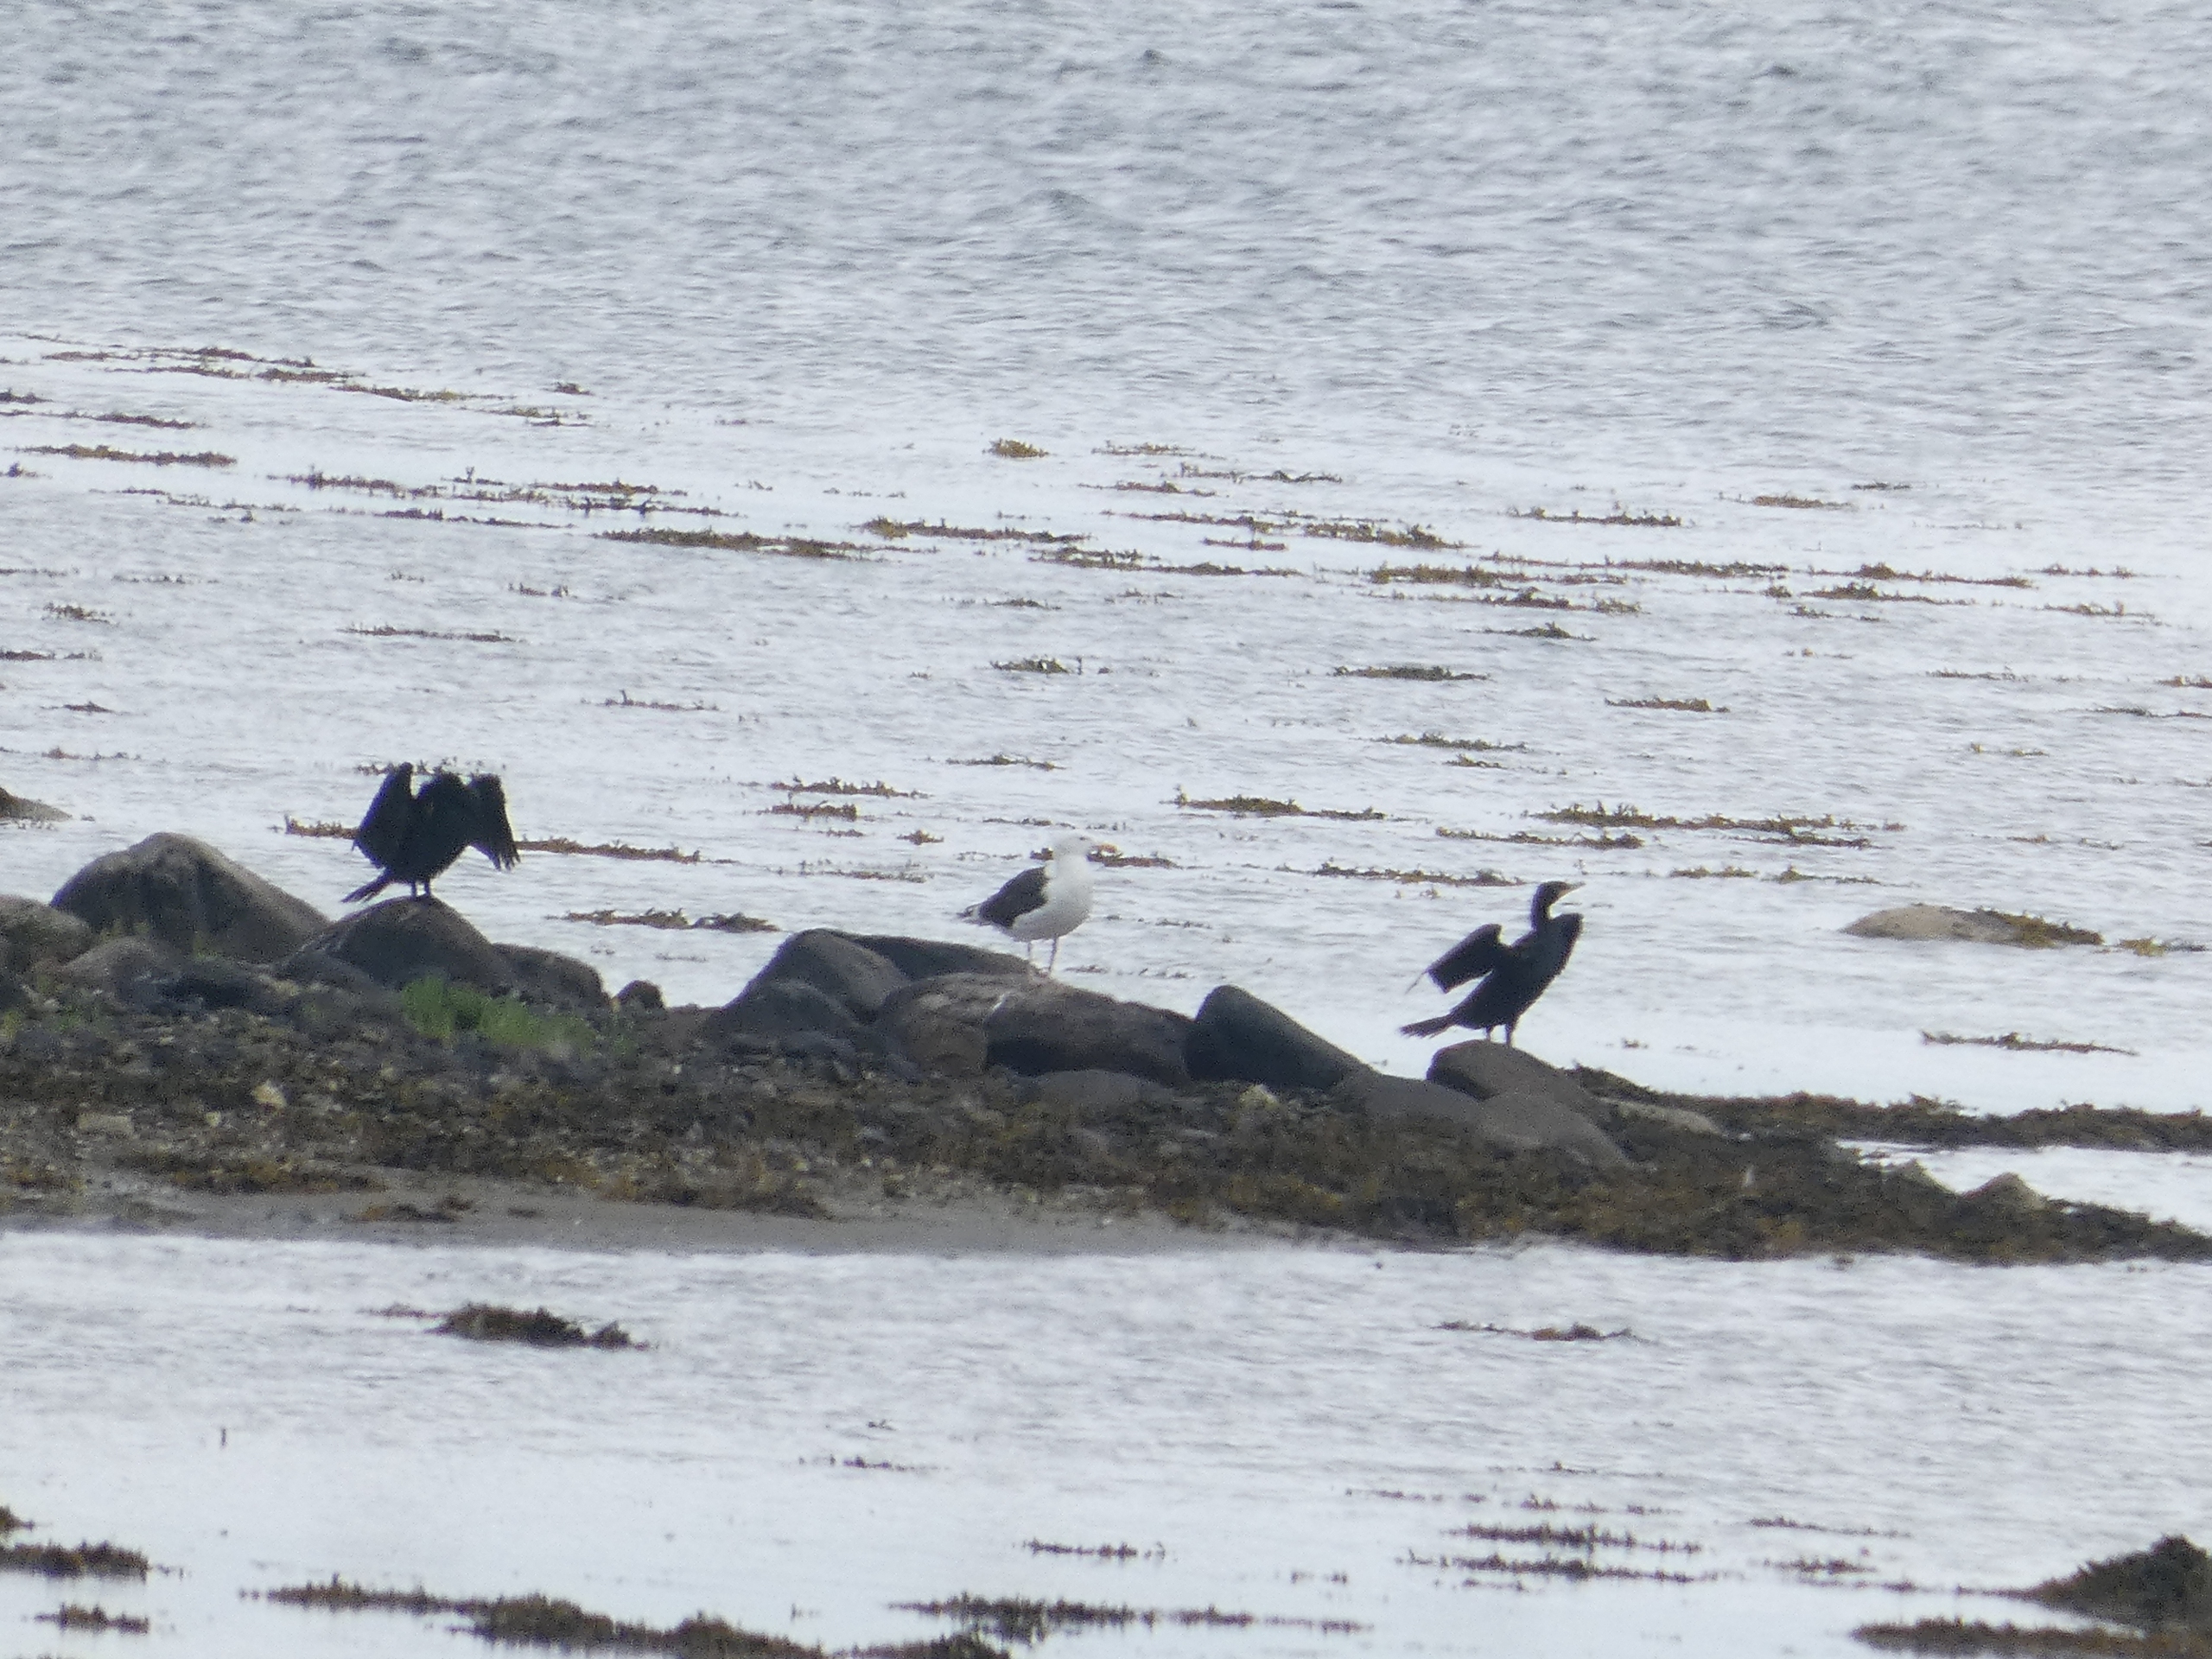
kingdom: Animalia
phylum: Chordata
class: Aves
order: Suliformes
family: Phalacrocoracidae
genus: Phalacrocorax
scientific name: Phalacrocorax carbo
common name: Skarv
